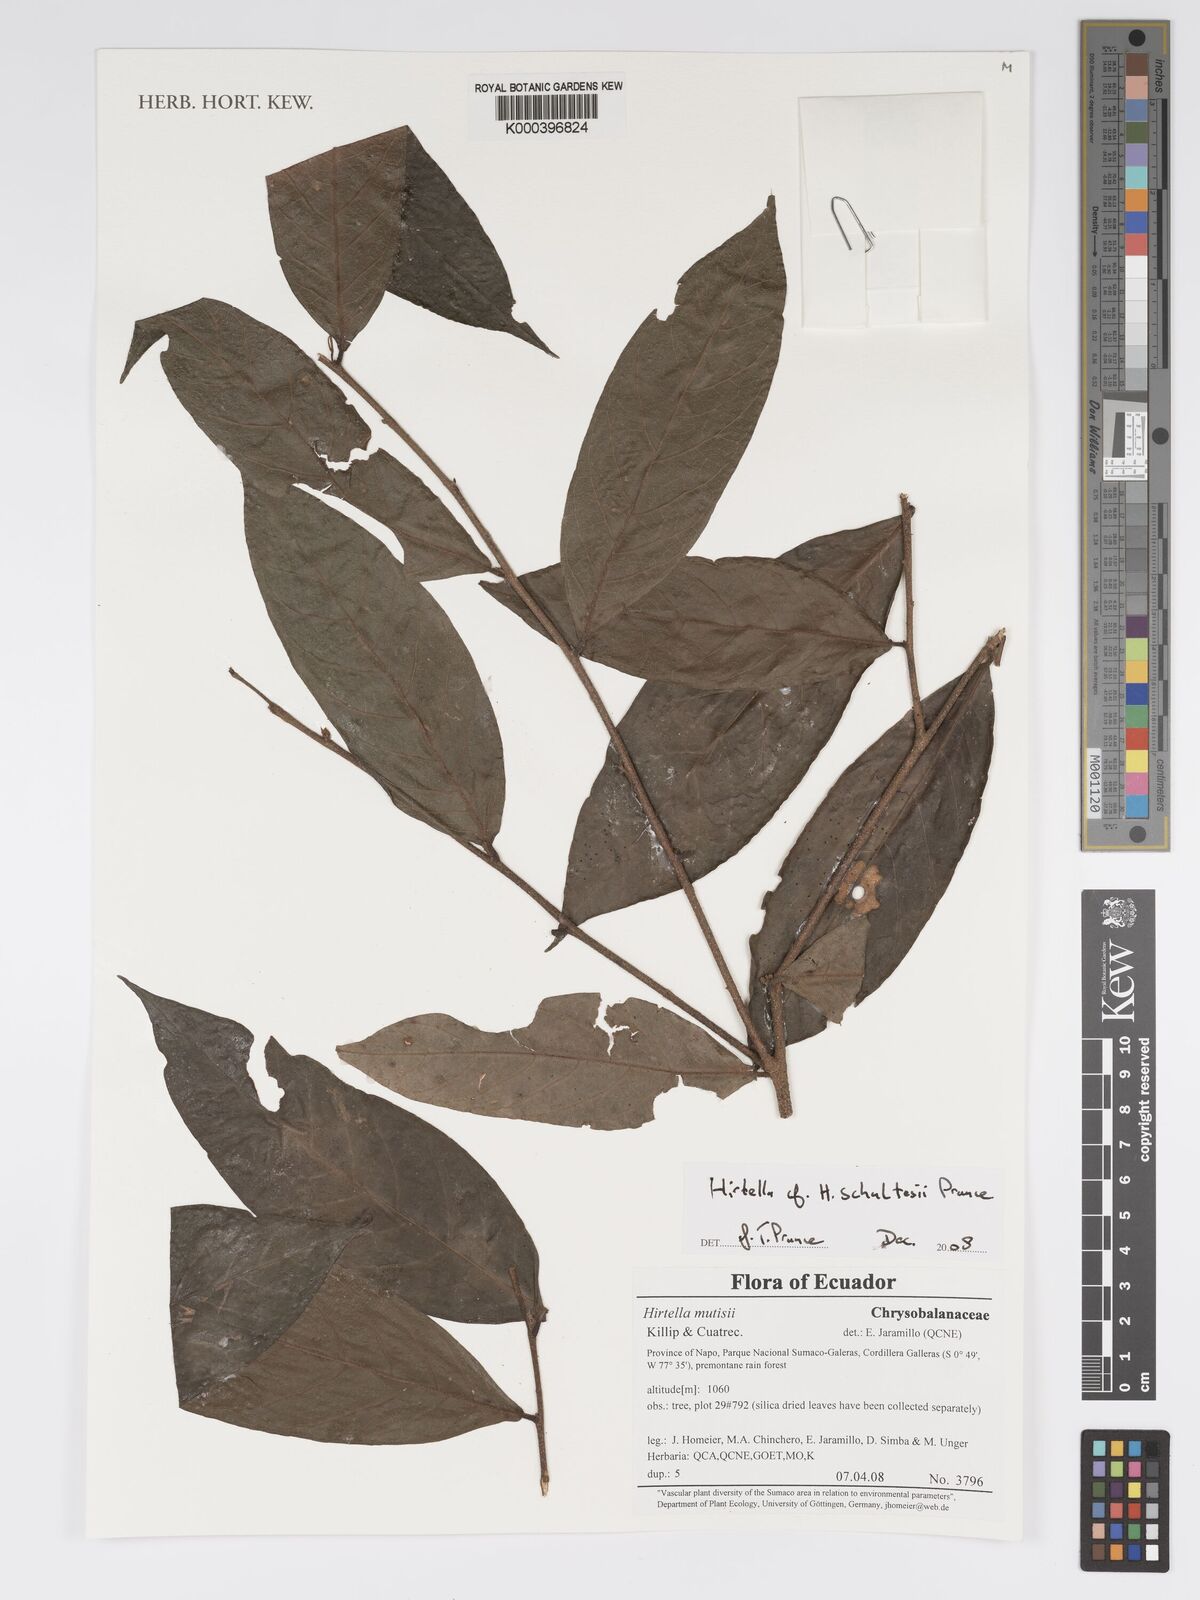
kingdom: Plantae
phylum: Tracheophyta
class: Magnoliopsida
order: Malpighiales
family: Chrysobalanaceae
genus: Hirtella
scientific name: Hirtella schultesii
